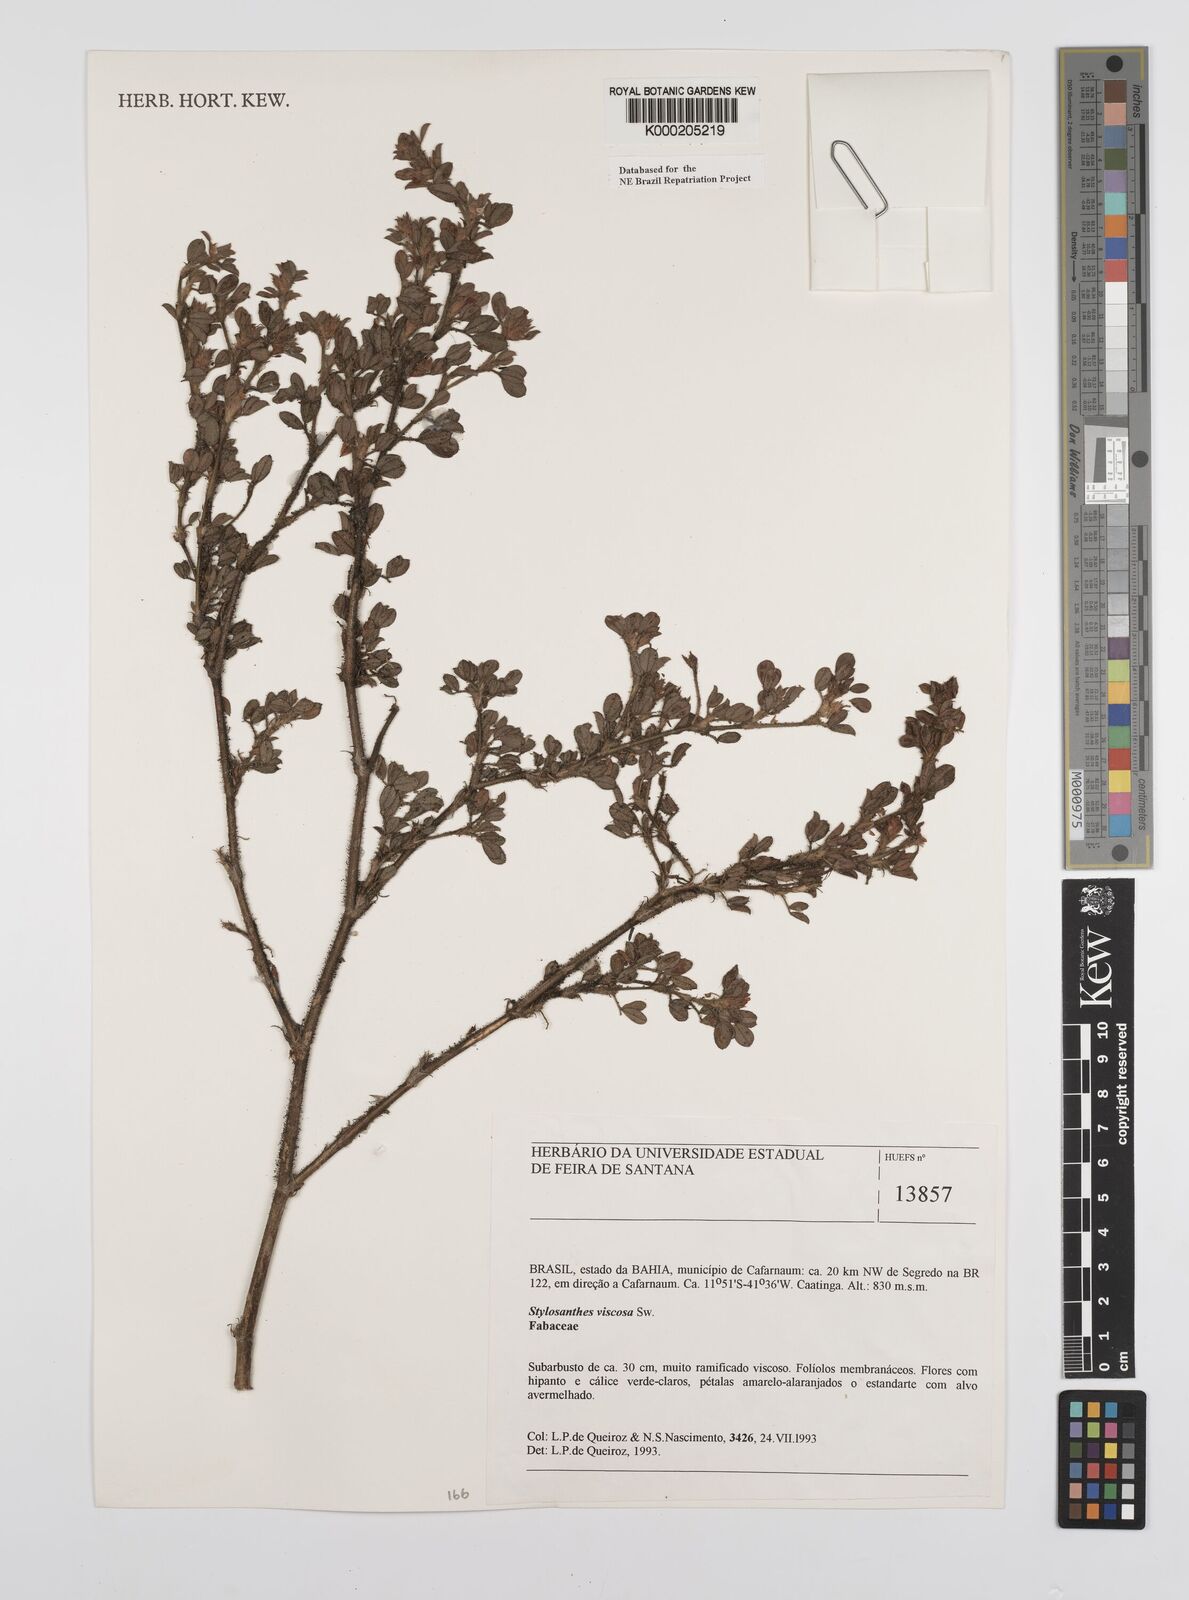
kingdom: Plantae
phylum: Tracheophyta
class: Magnoliopsida
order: Fabales
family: Fabaceae
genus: Stylosanthes
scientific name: Stylosanthes viscosa
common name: Viscid pencil-flower
